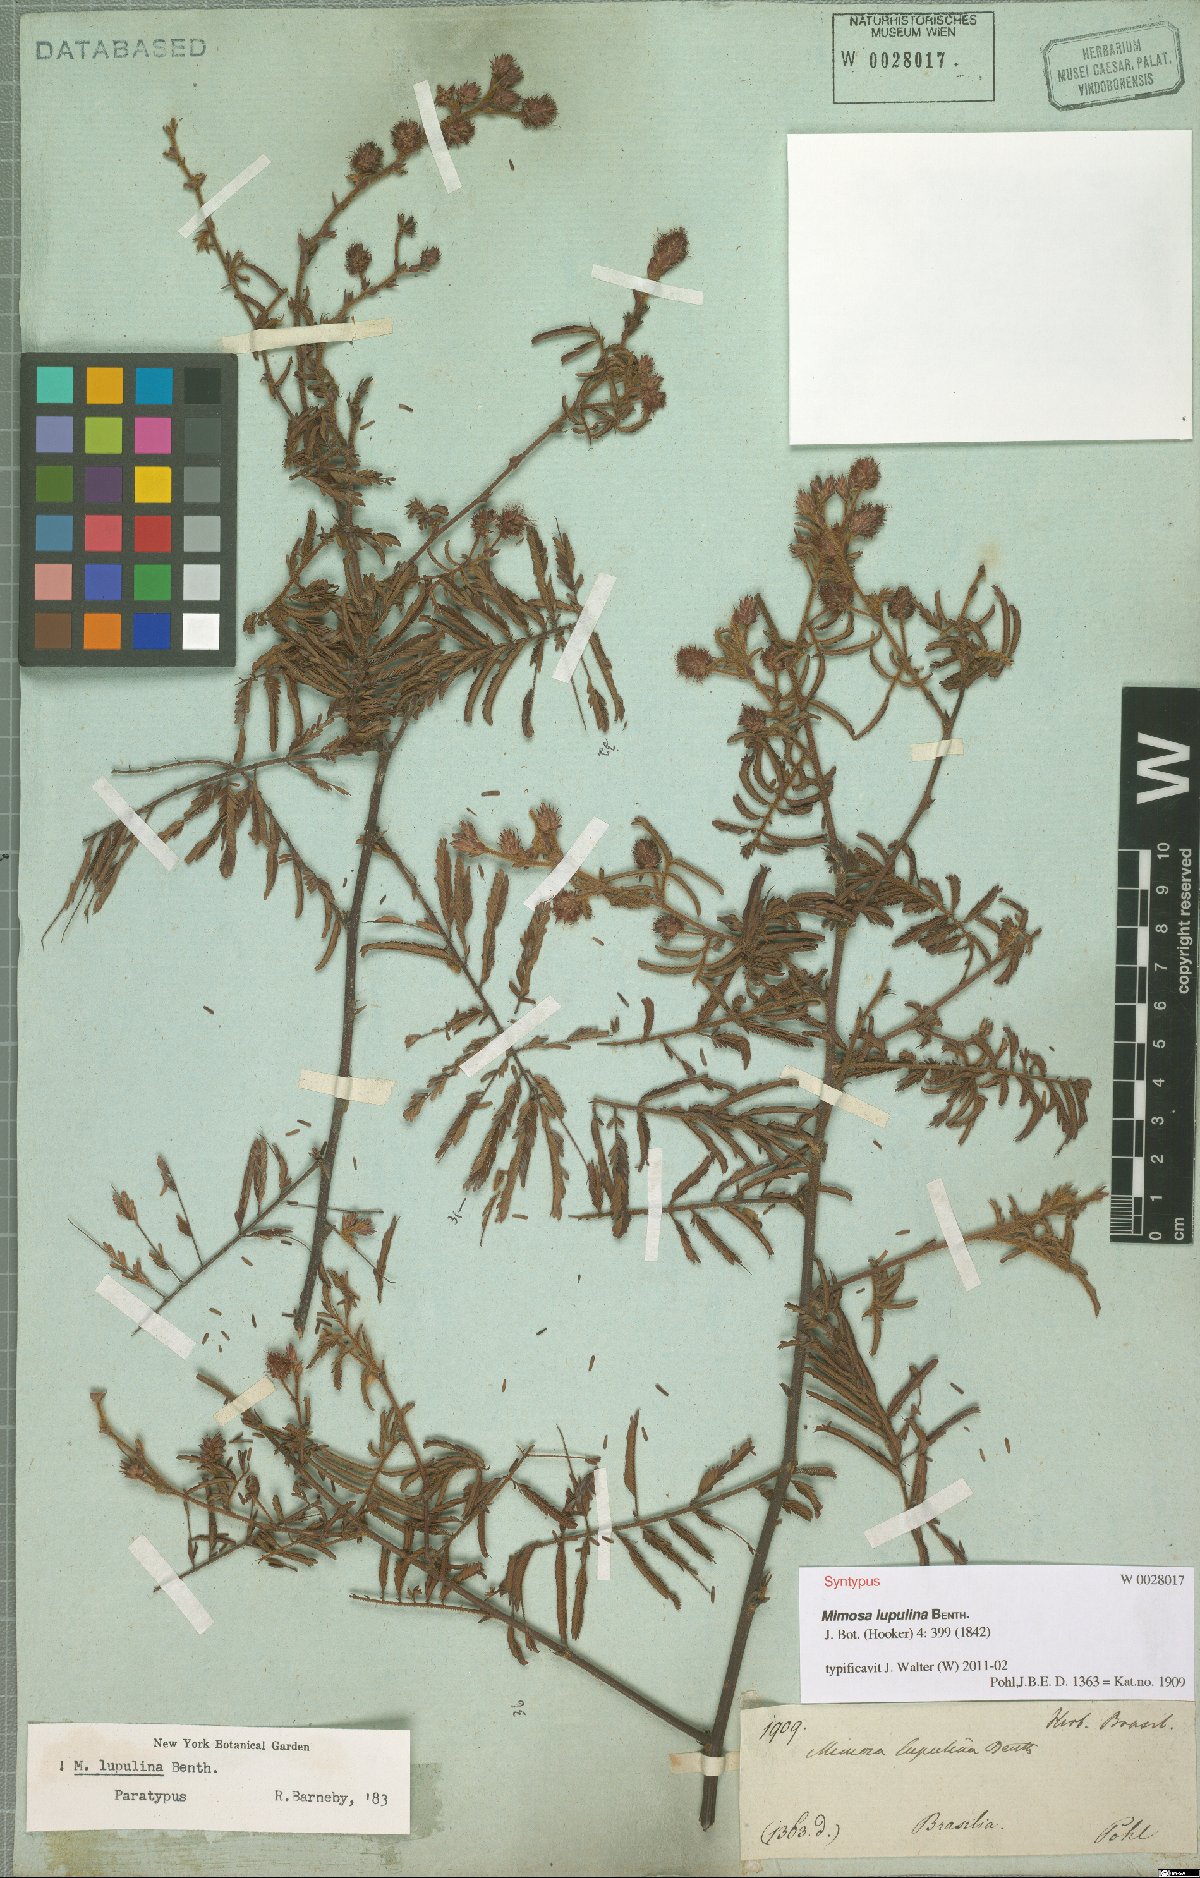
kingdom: Plantae
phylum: Tracheophyta
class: Magnoliopsida
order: Fabales
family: Fabaceae
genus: Mimosa
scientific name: Mimosa somnians
